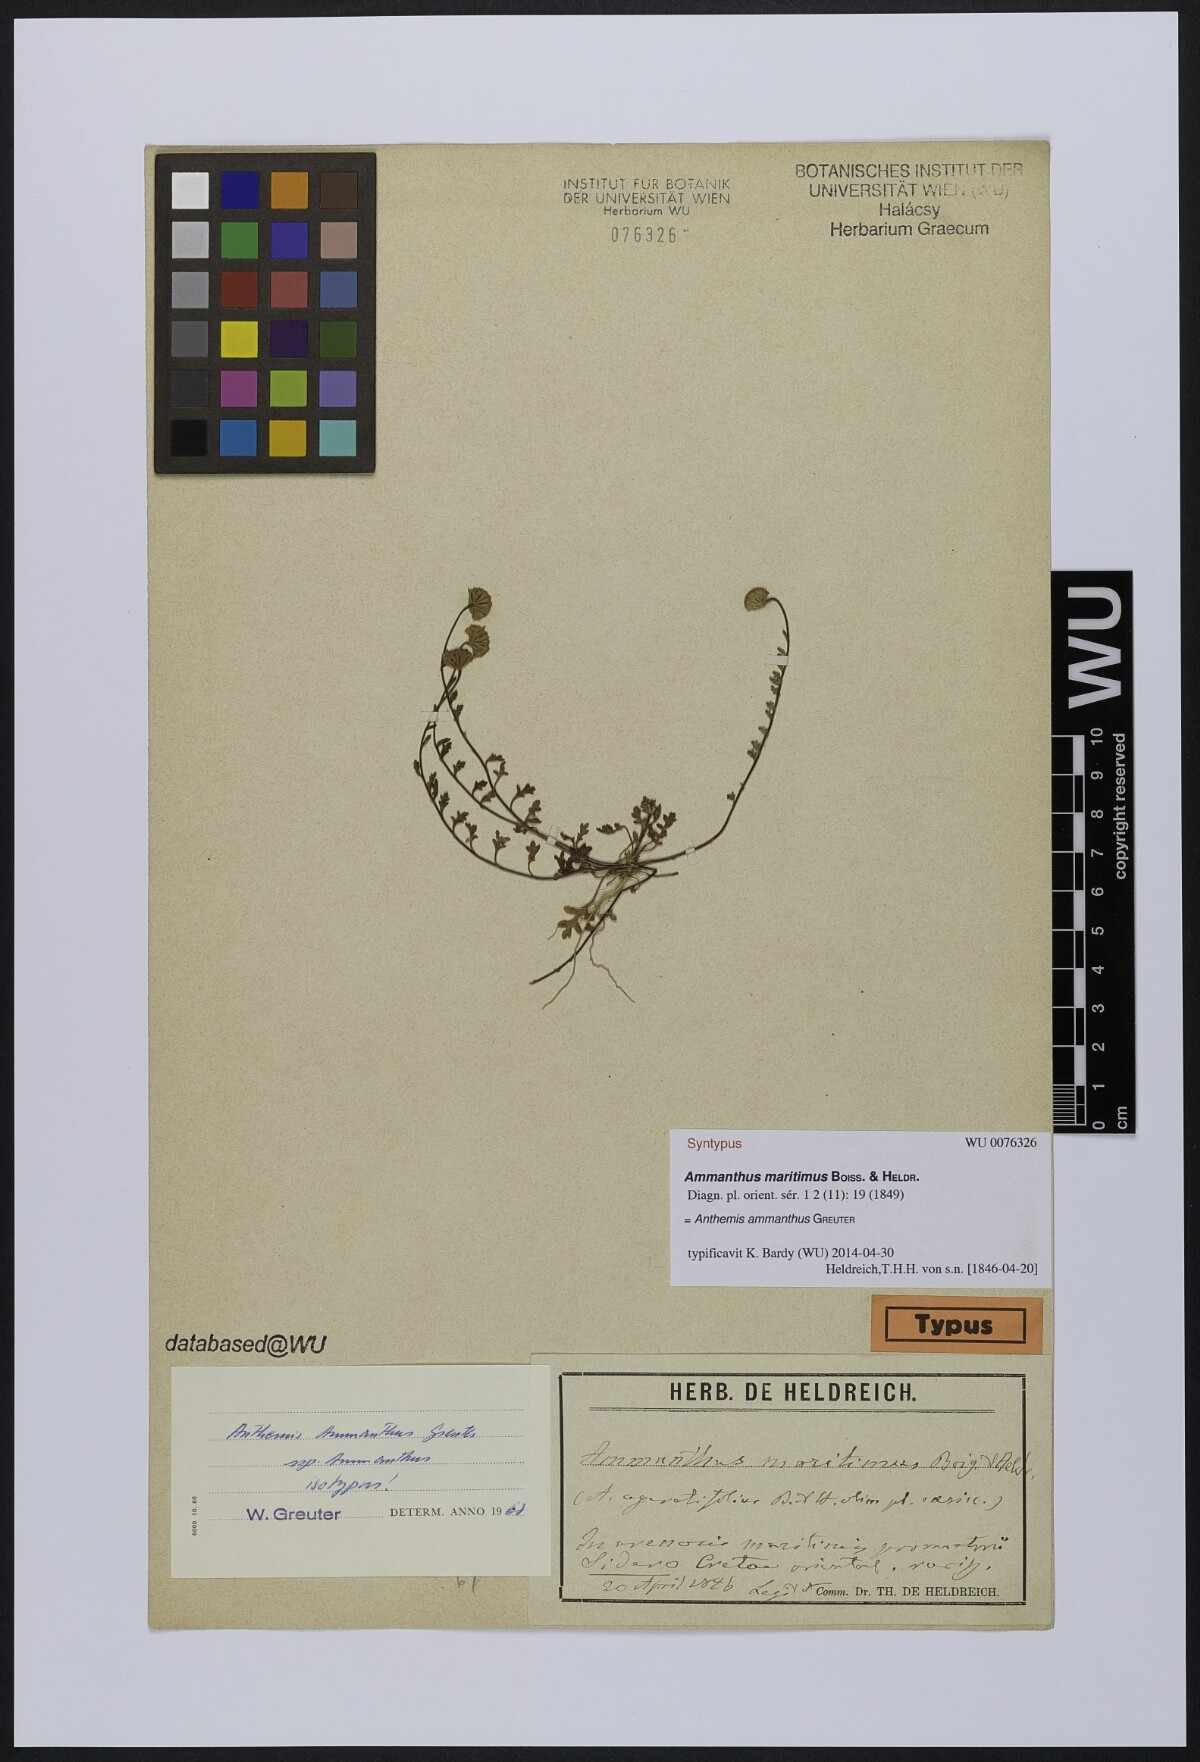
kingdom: Plantae
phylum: Tracheophyta
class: Magnoliopsida
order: Asterales
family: Asteraceae
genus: Anthemis
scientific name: Anthemis ammanthus
